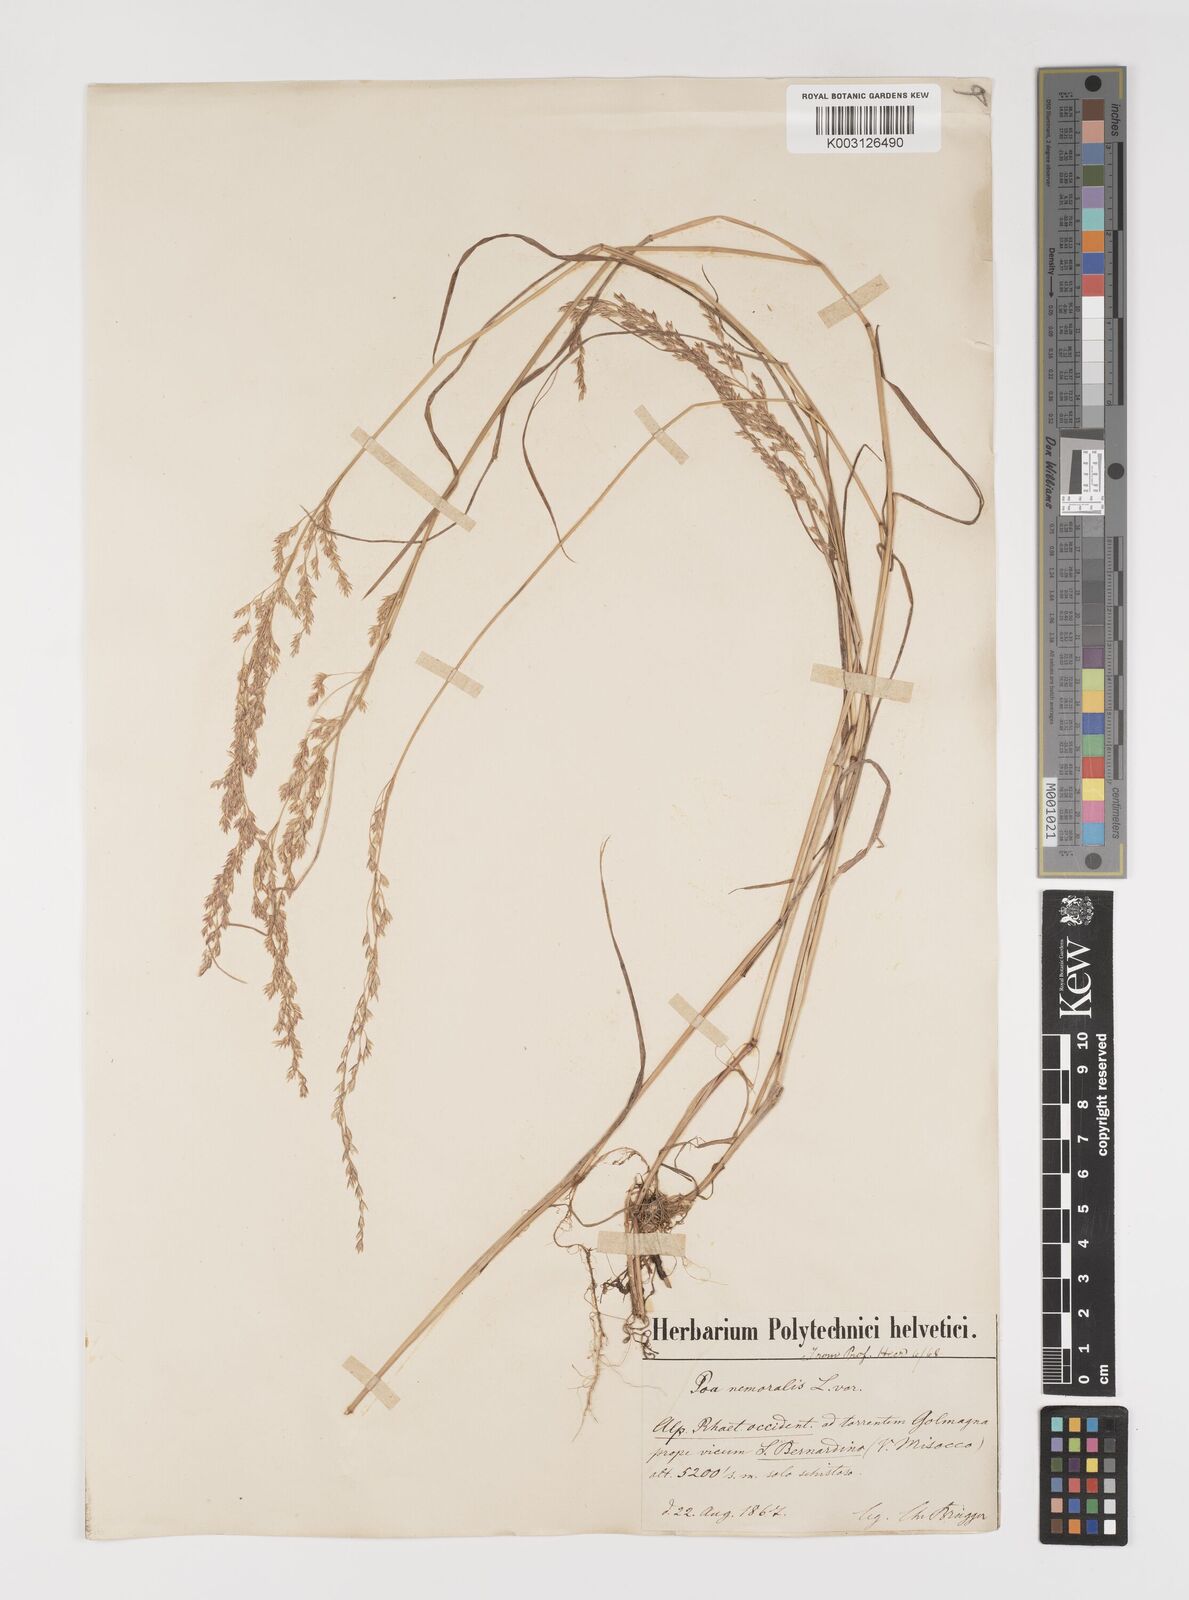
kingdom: Plantae
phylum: Tracheophyta
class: Liliopsida
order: Poales
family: Poaceae
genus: Poa
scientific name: Poa nemoralis
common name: Wood bluegrass
